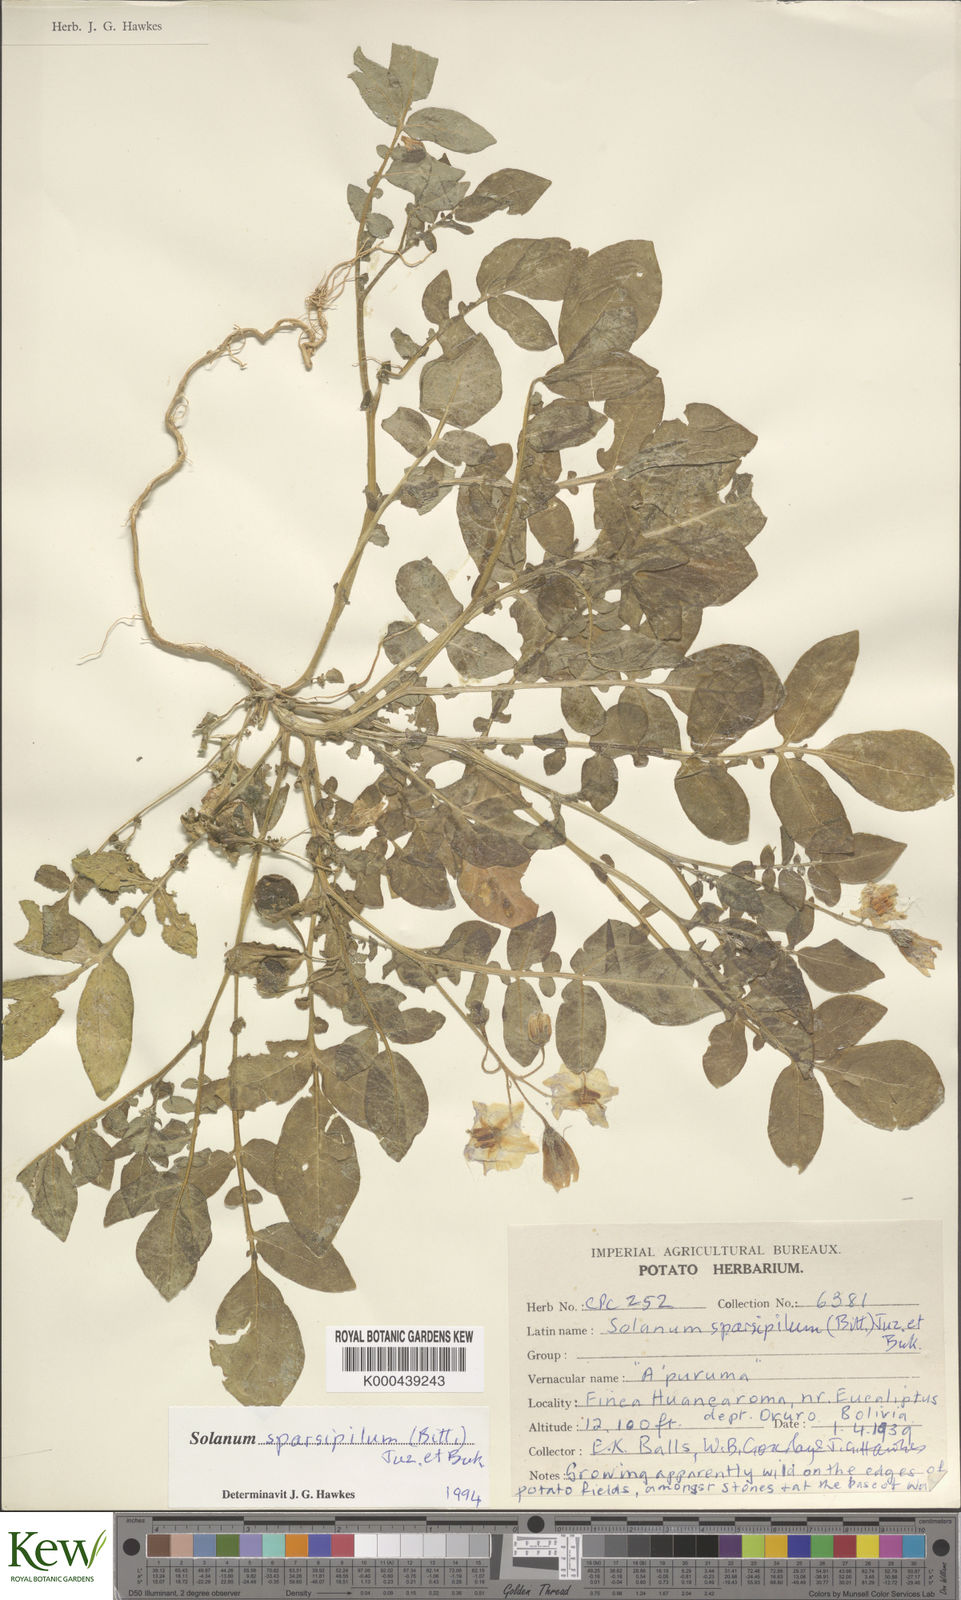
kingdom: Plantae
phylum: Tracheophyta
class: Magnoliopsida
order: Solanales
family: Solanaceae
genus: Solanum
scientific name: Solanum brevicaule
